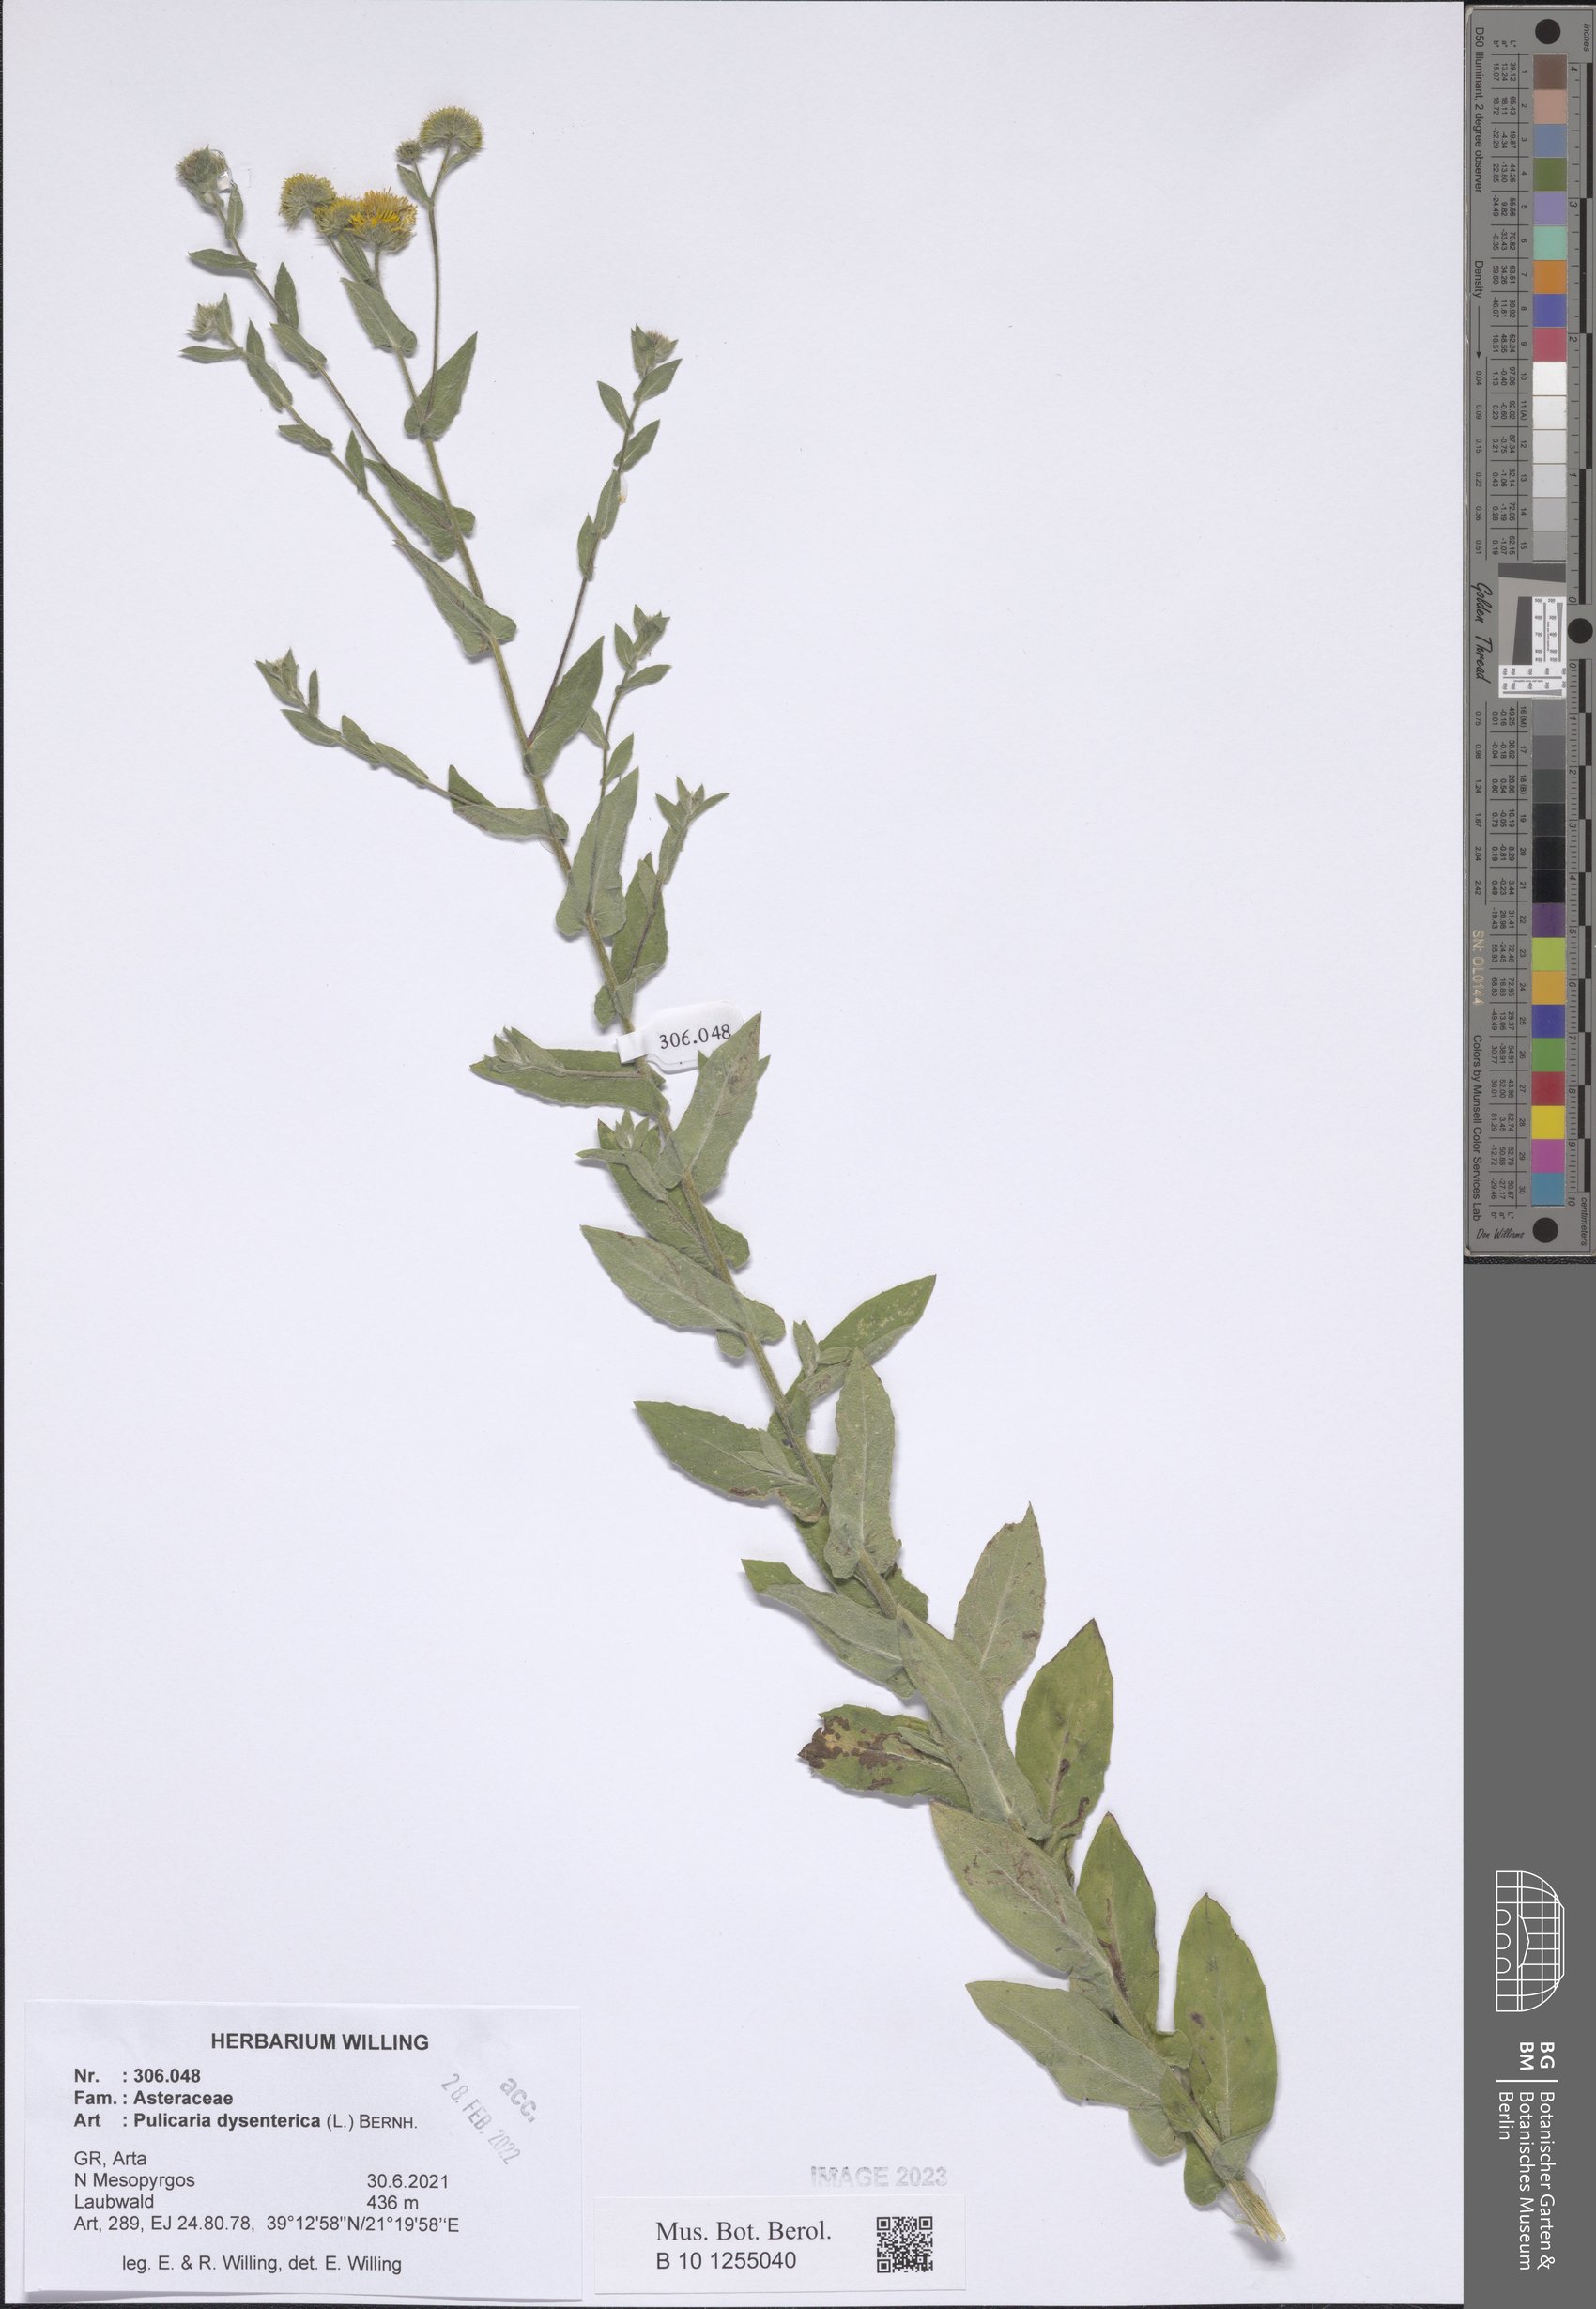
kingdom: Plantae
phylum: Tracheophyta
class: Magnoliopsida
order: Asterales
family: Asteraceae
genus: Pulicaria
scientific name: Pulicaria dysenterica
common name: Common fleabane
